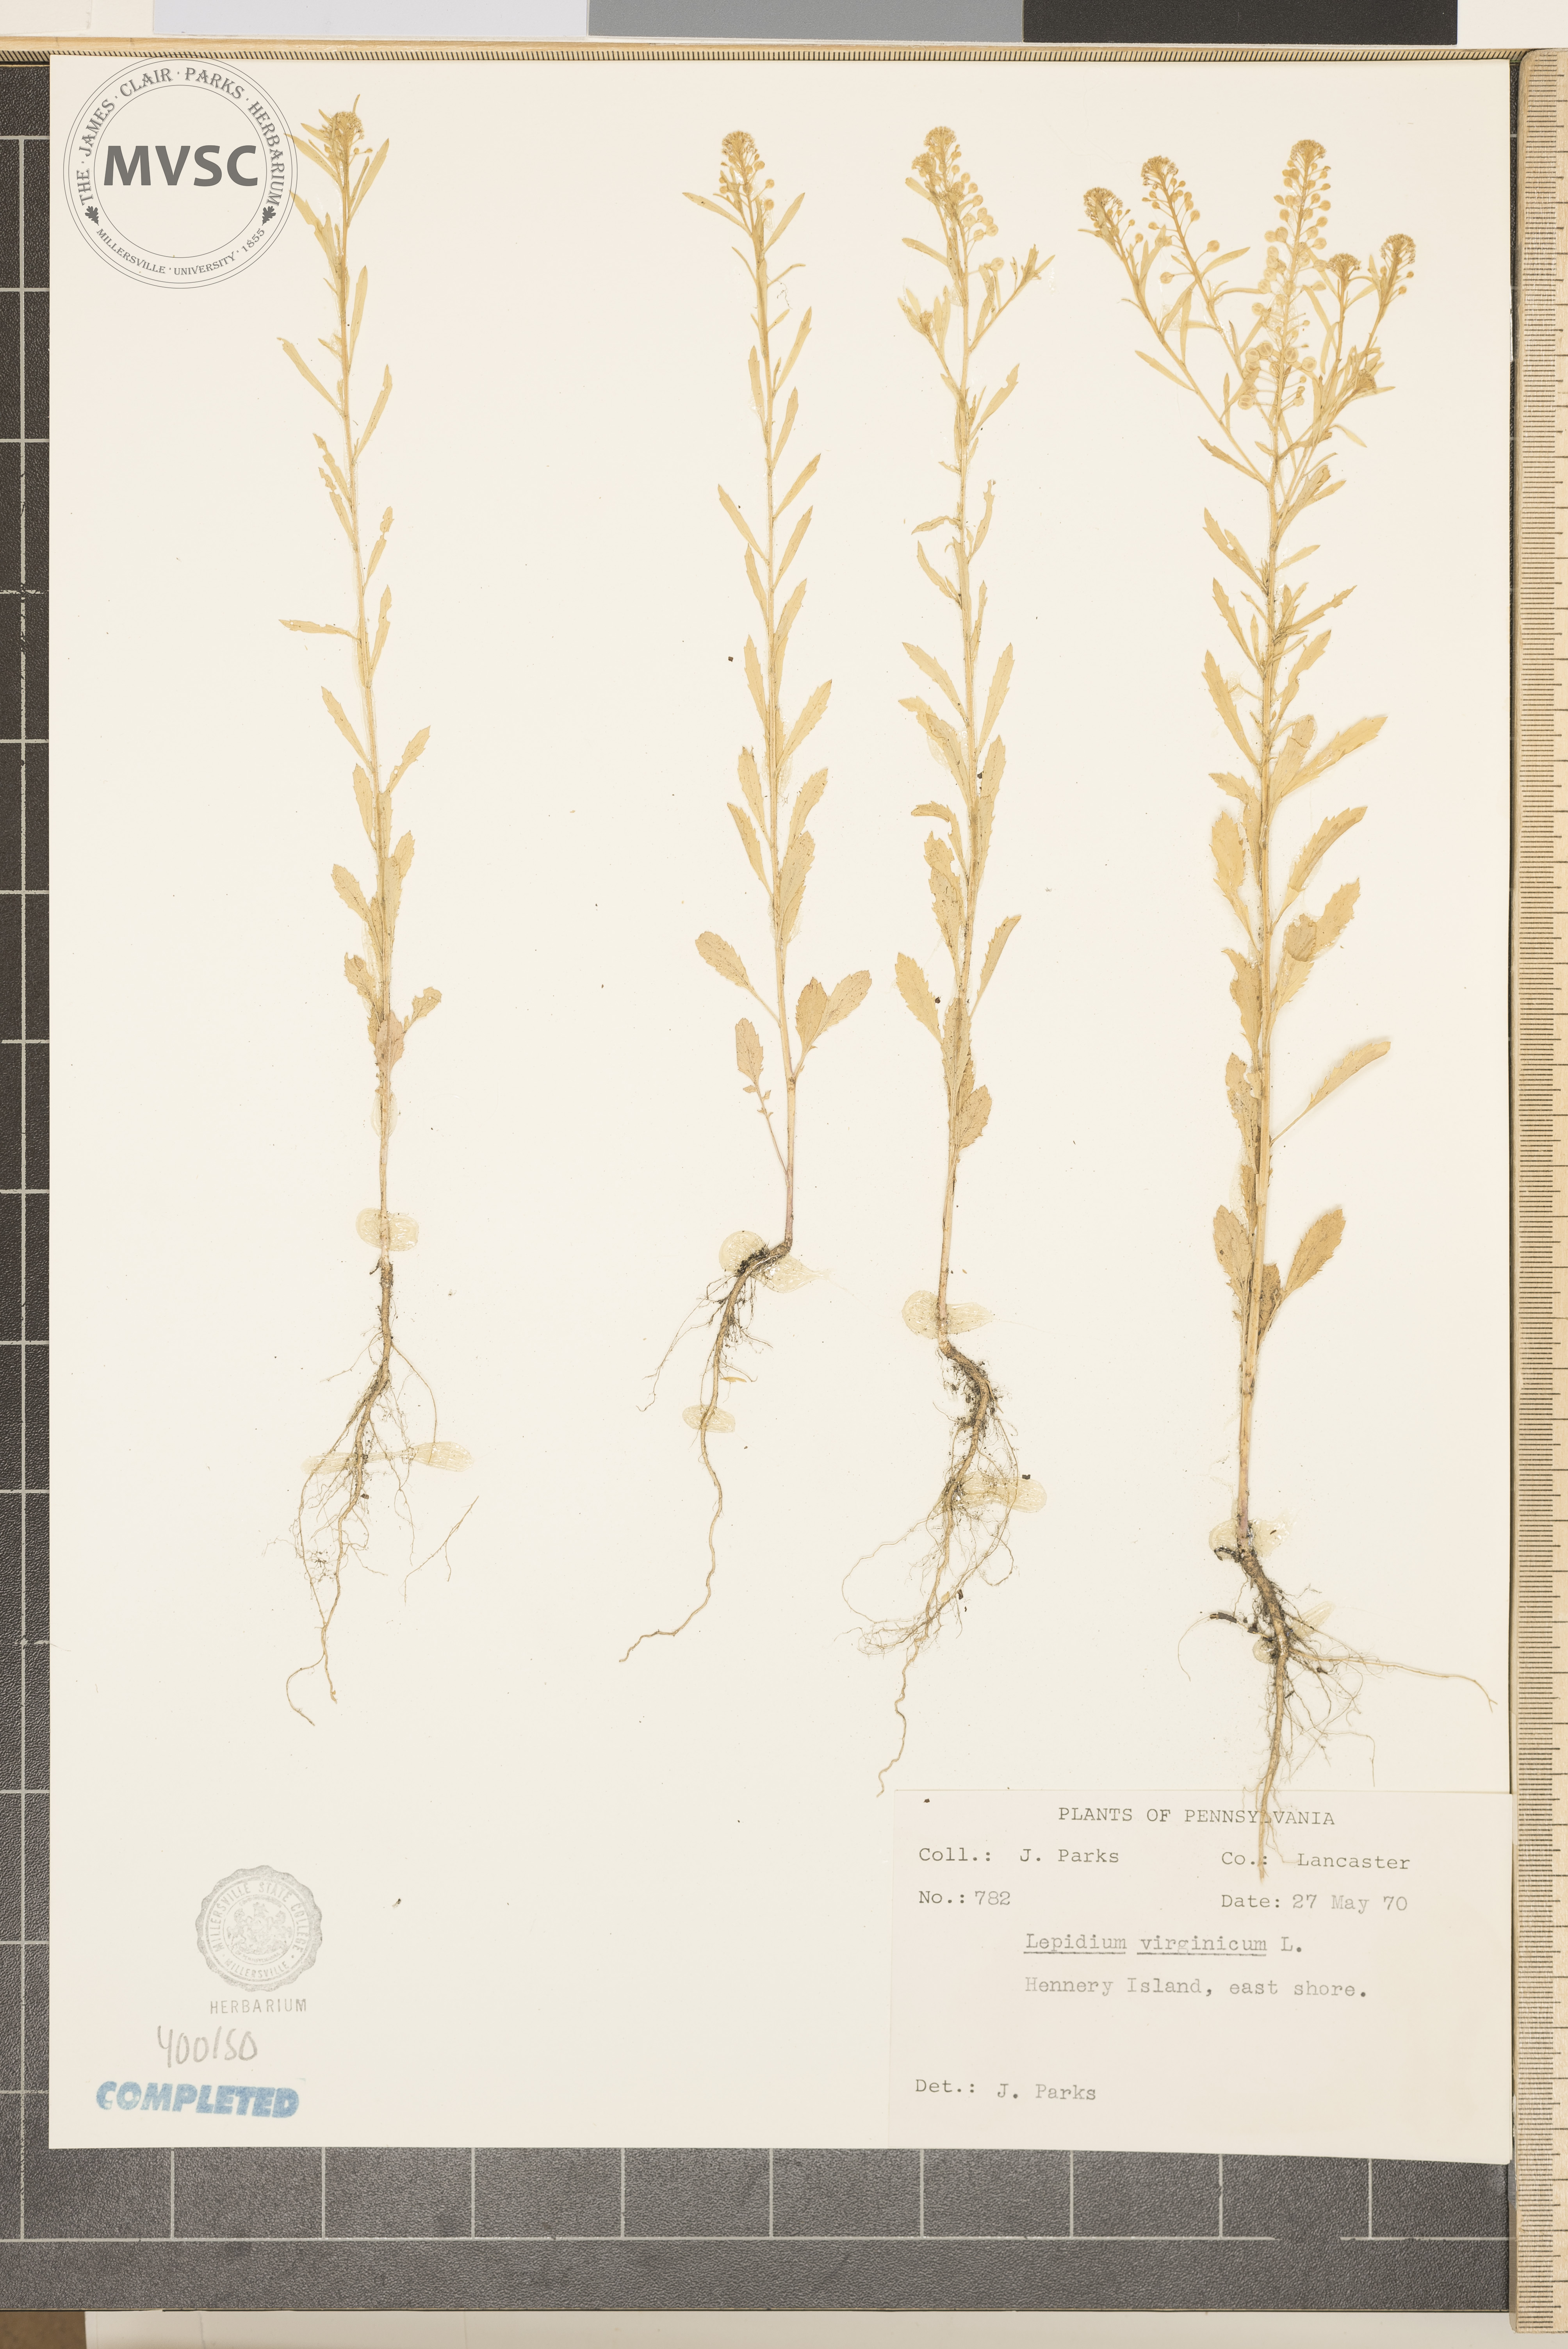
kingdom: Plantae
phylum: Tracheophyta
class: Magnoliopsida
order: Brassicales
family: Brassicaceae
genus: Lepidium
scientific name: Lepidium virginicum
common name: Virginia pepperweed
